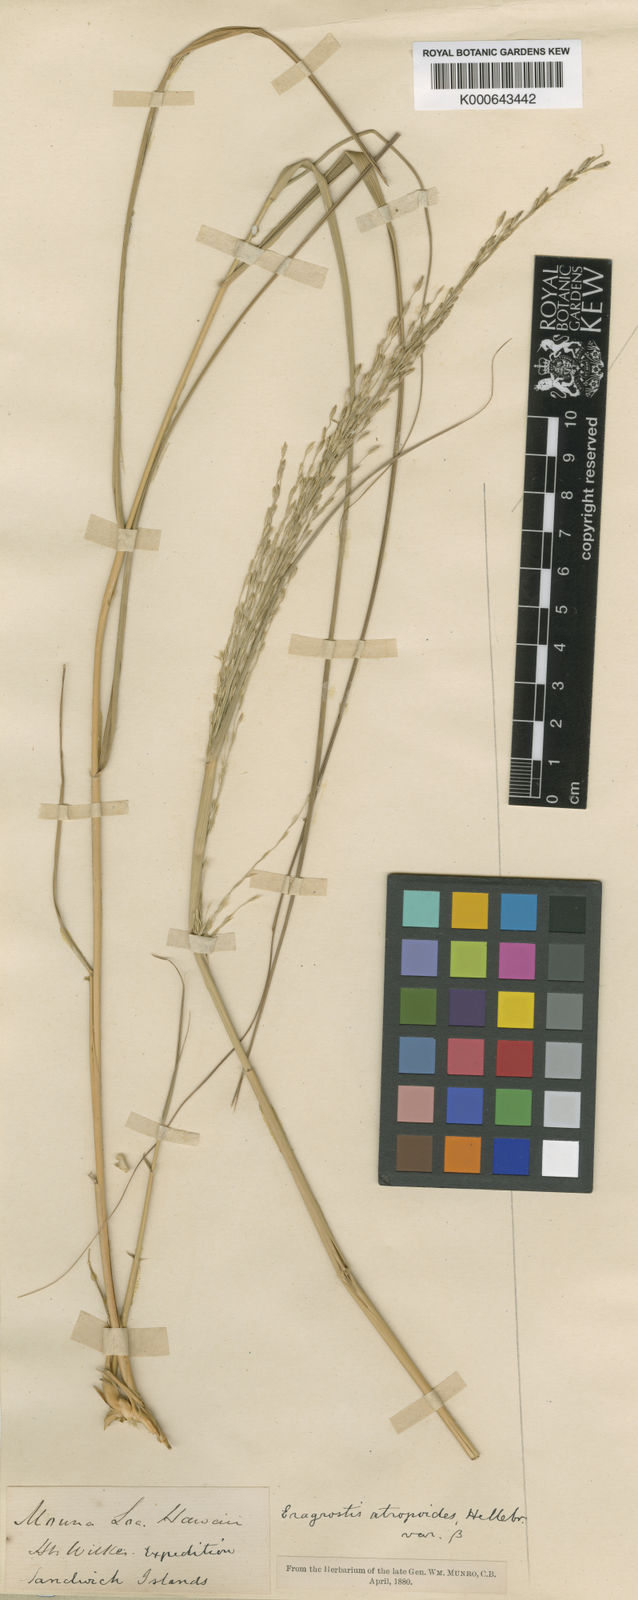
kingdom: Plantae
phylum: Tracheophyta
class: Liliopsida
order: Poales
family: Poaceae
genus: Eragrostis
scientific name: Eragrostis atropioides
